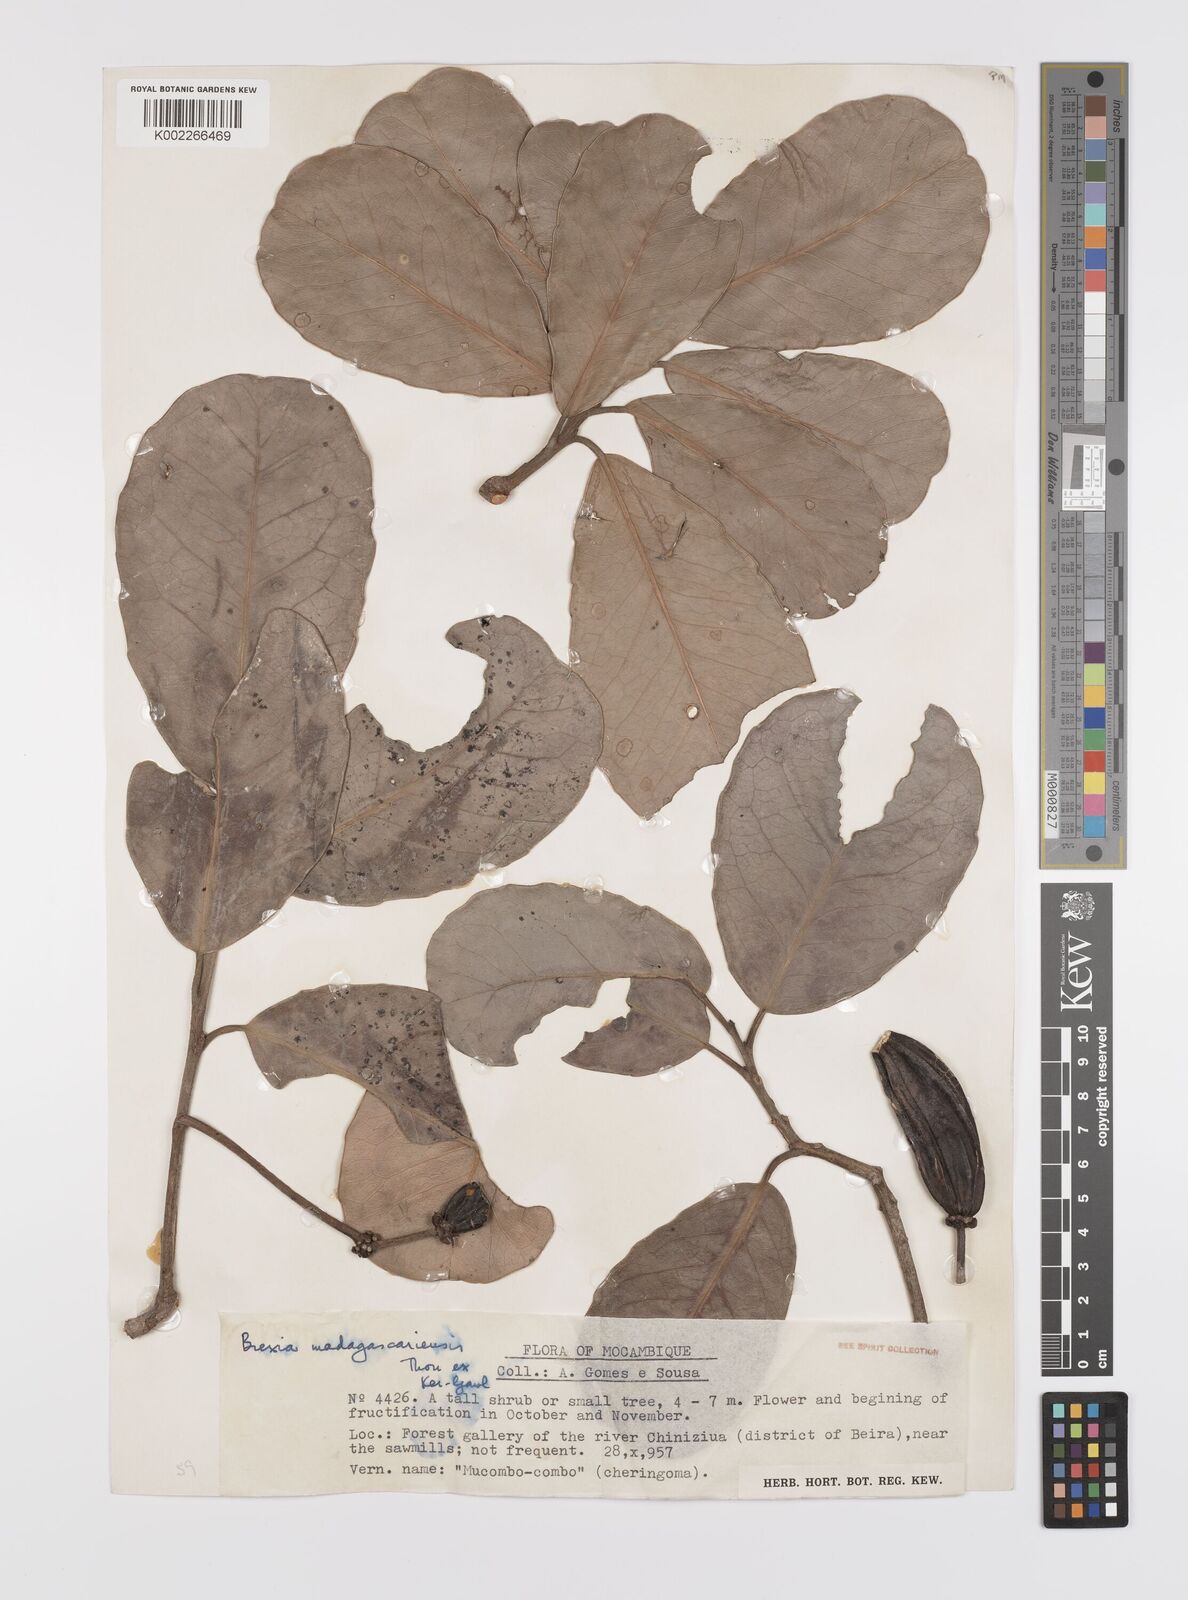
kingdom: Plantae
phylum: Tracheophyta
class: Magnoliopsida
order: Celastrales
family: Celastraceae
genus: Brexia
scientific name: Brexia madagascariensis
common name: Brexia
